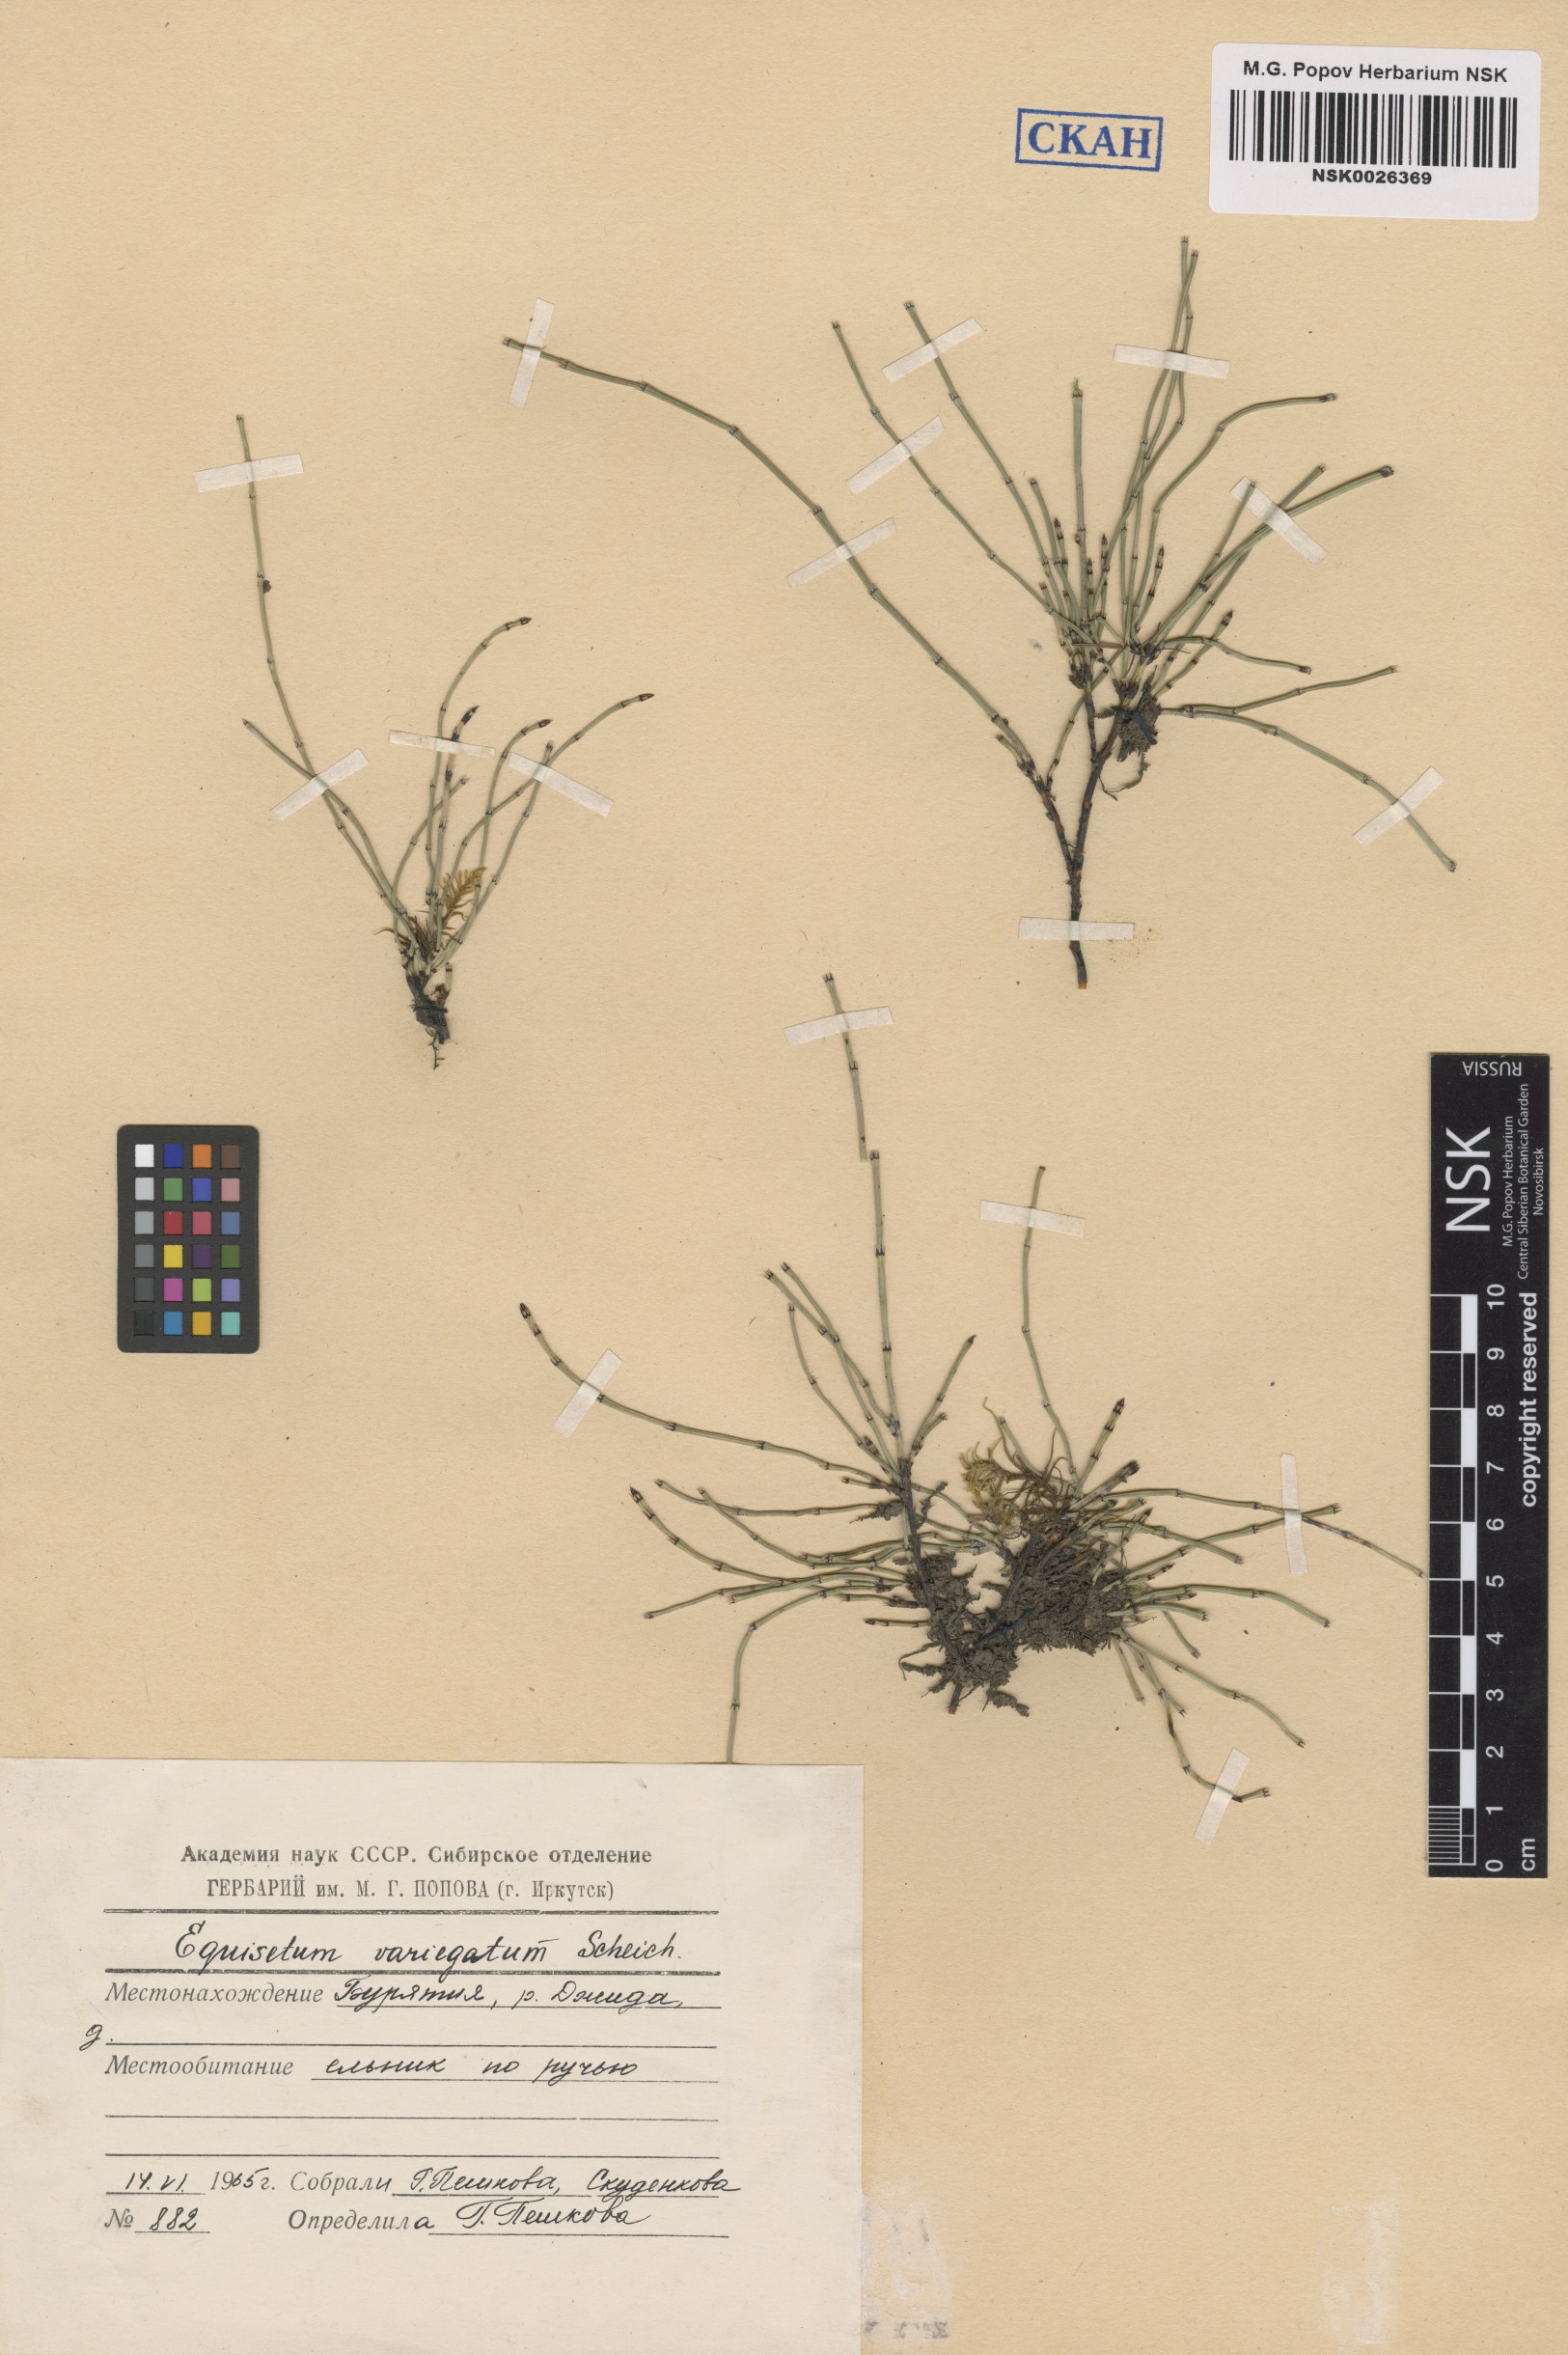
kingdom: Plantae
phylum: Tracheophyta
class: Polypodiopsida
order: Equisetales
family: Equisetaceae
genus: Equisetum
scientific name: Equisetum variegatum
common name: Variegated horsetail
